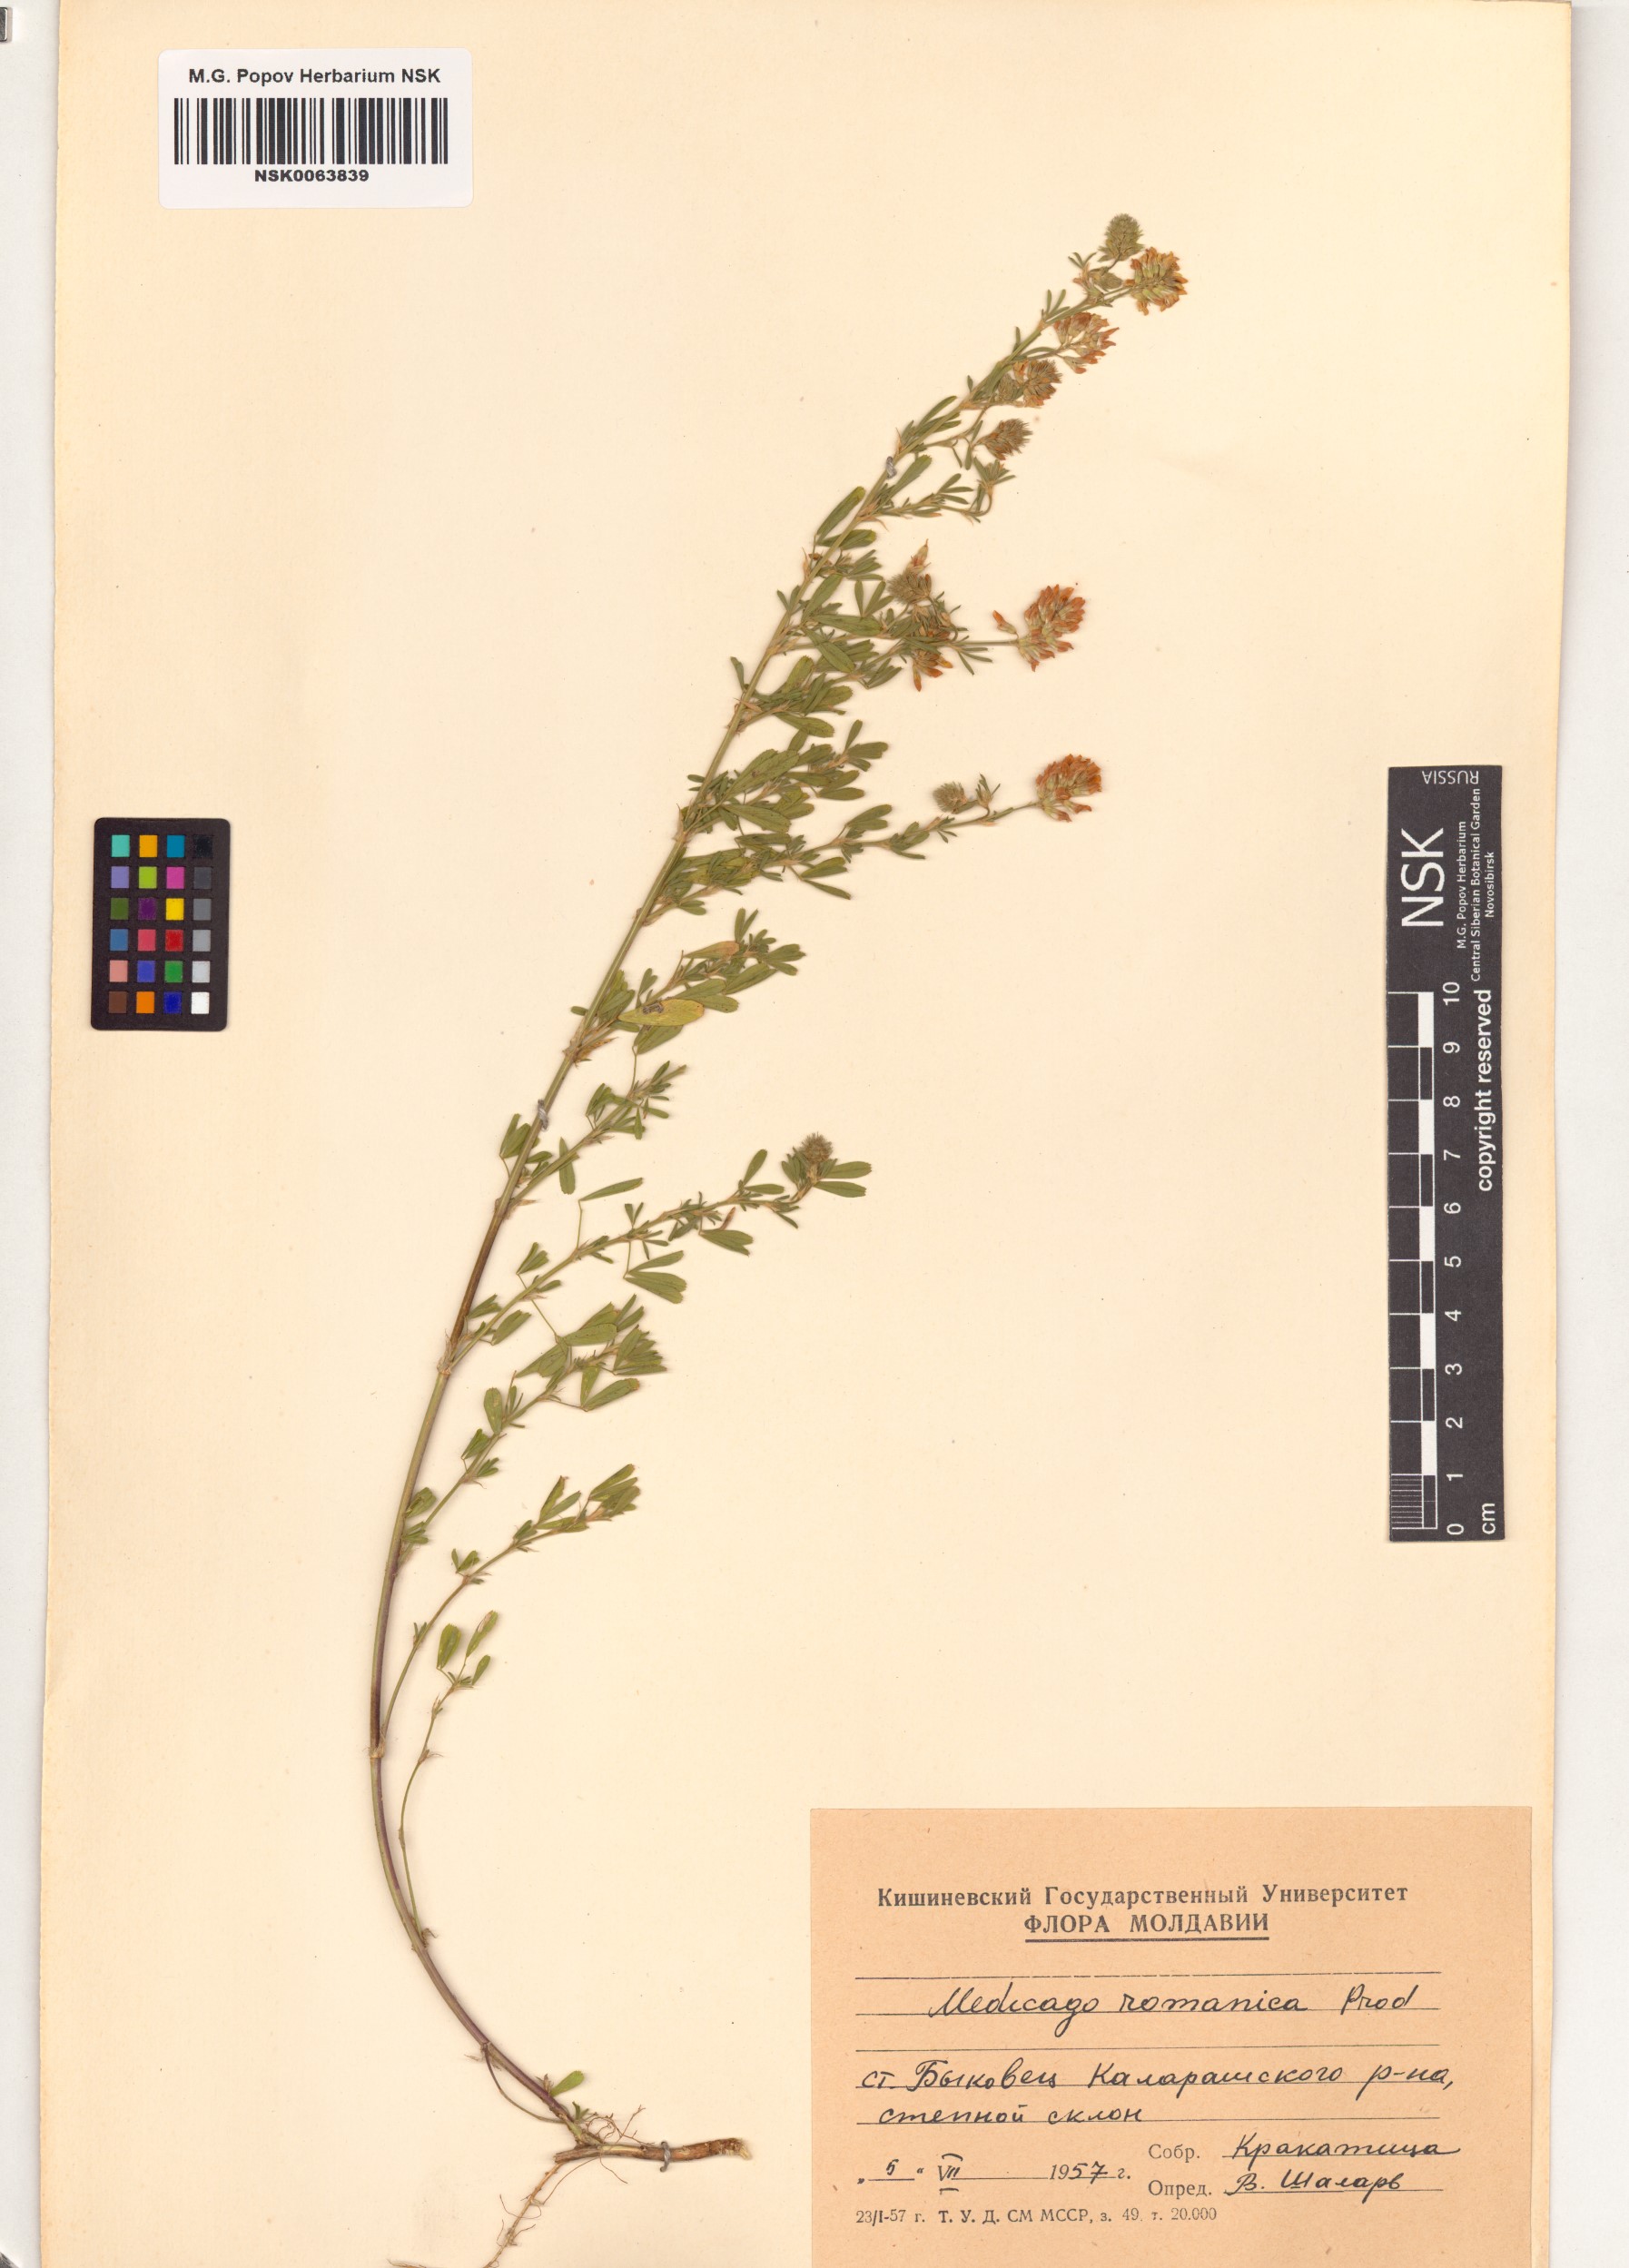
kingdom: Plantae
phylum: Tracheophyta
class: Magnoliopsida
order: Fabales
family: Fabaceae
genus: Medicago
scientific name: Medicago falcata
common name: Sickle medick
